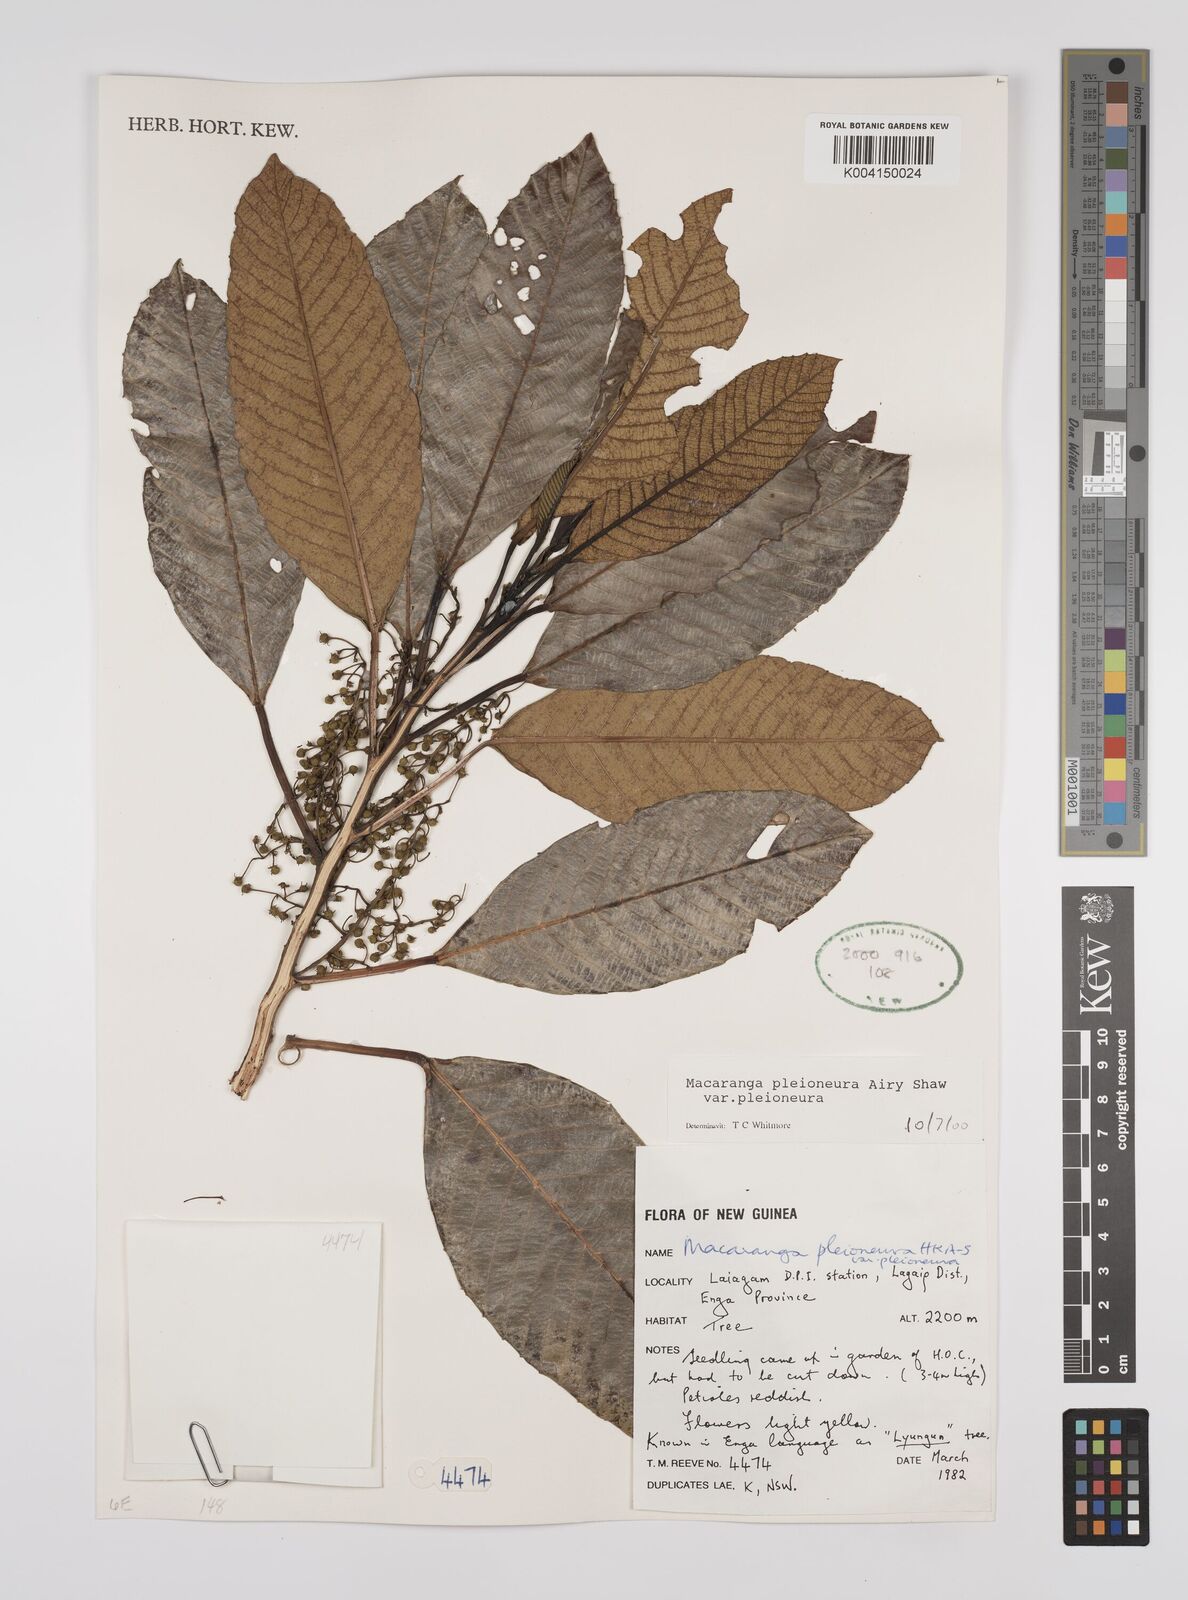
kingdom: Plantae
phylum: Tracheophyta
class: Magnoliopsida
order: Malpighiales
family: Euphorbiaceae
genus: Macaranga
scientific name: Macaranga pleioneura
